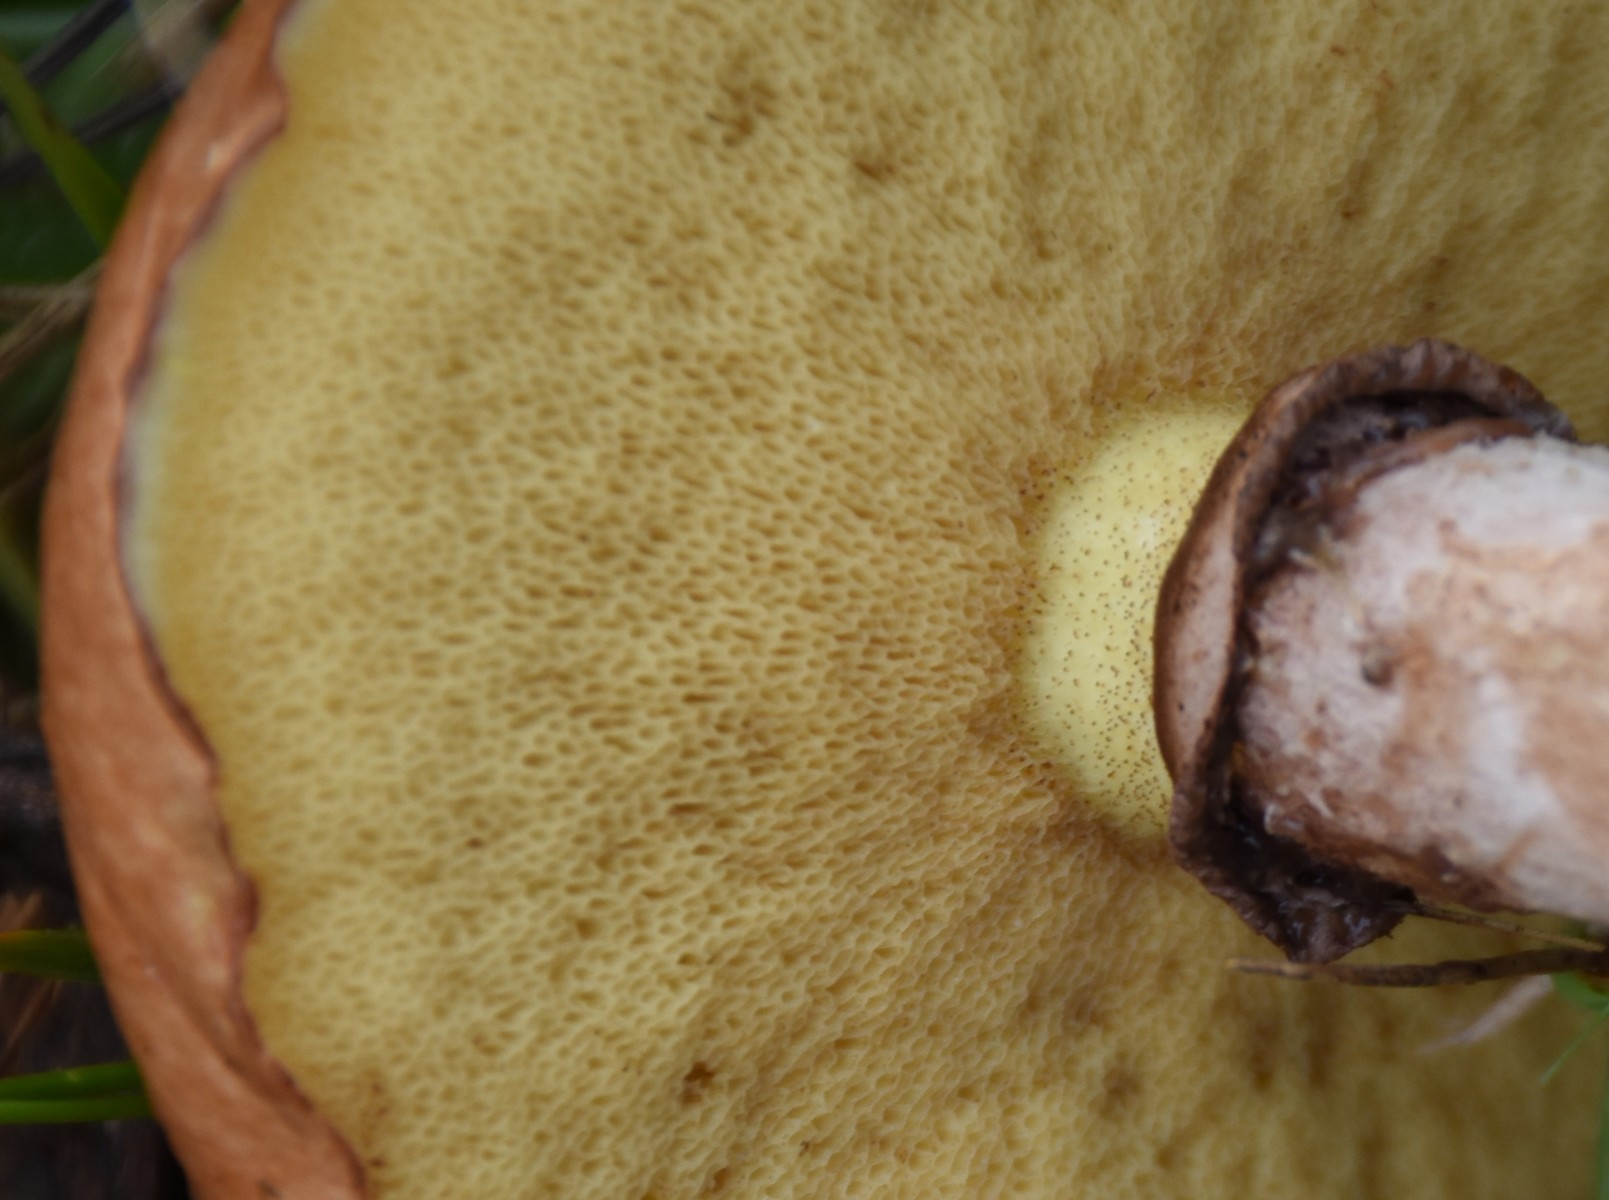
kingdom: Fungi
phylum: Basidiomycota
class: Agaricomycetes
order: Boletales
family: Suillaceae
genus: Suillus
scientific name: Suillus luteus
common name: brungul slimrørhat
